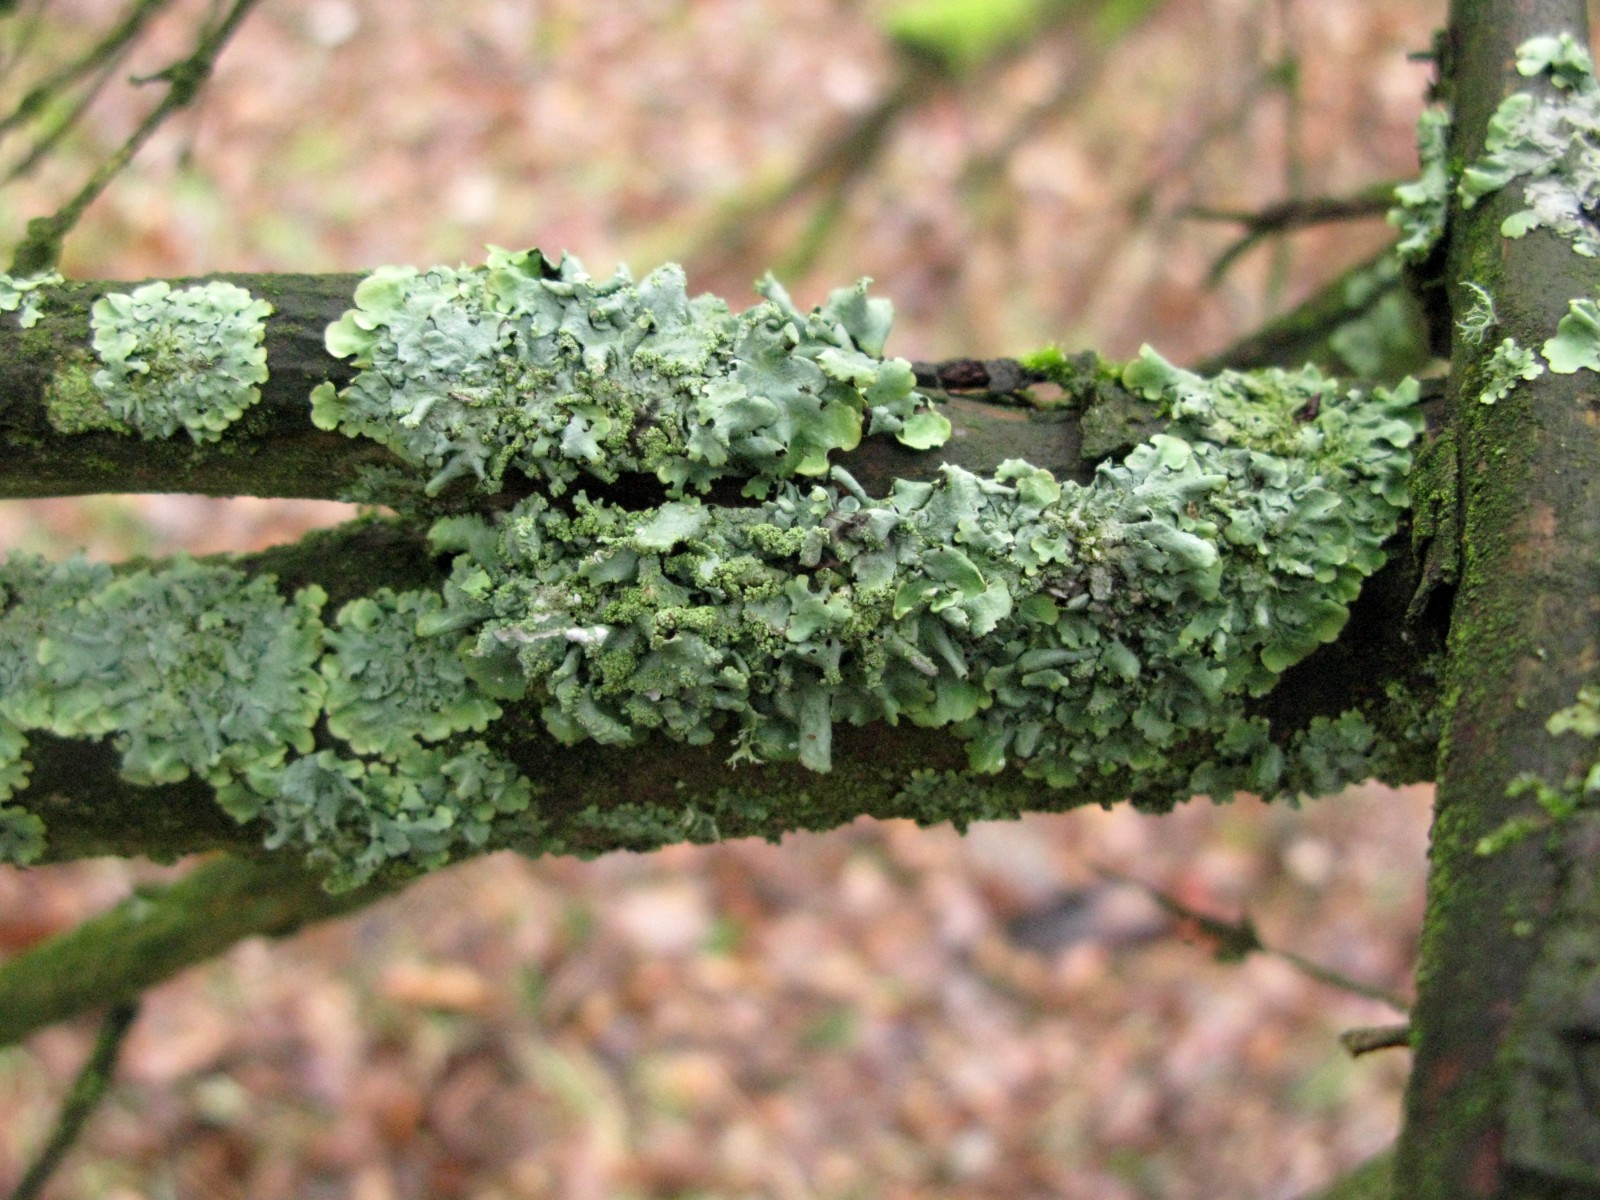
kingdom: Fungi
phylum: Ascomycota
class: Lecanoromycetes
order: Lecanorales
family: Parmeliaceae
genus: Hypotrachyna
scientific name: Hypotrachyna afrorevoluta
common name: kyst-skållav
